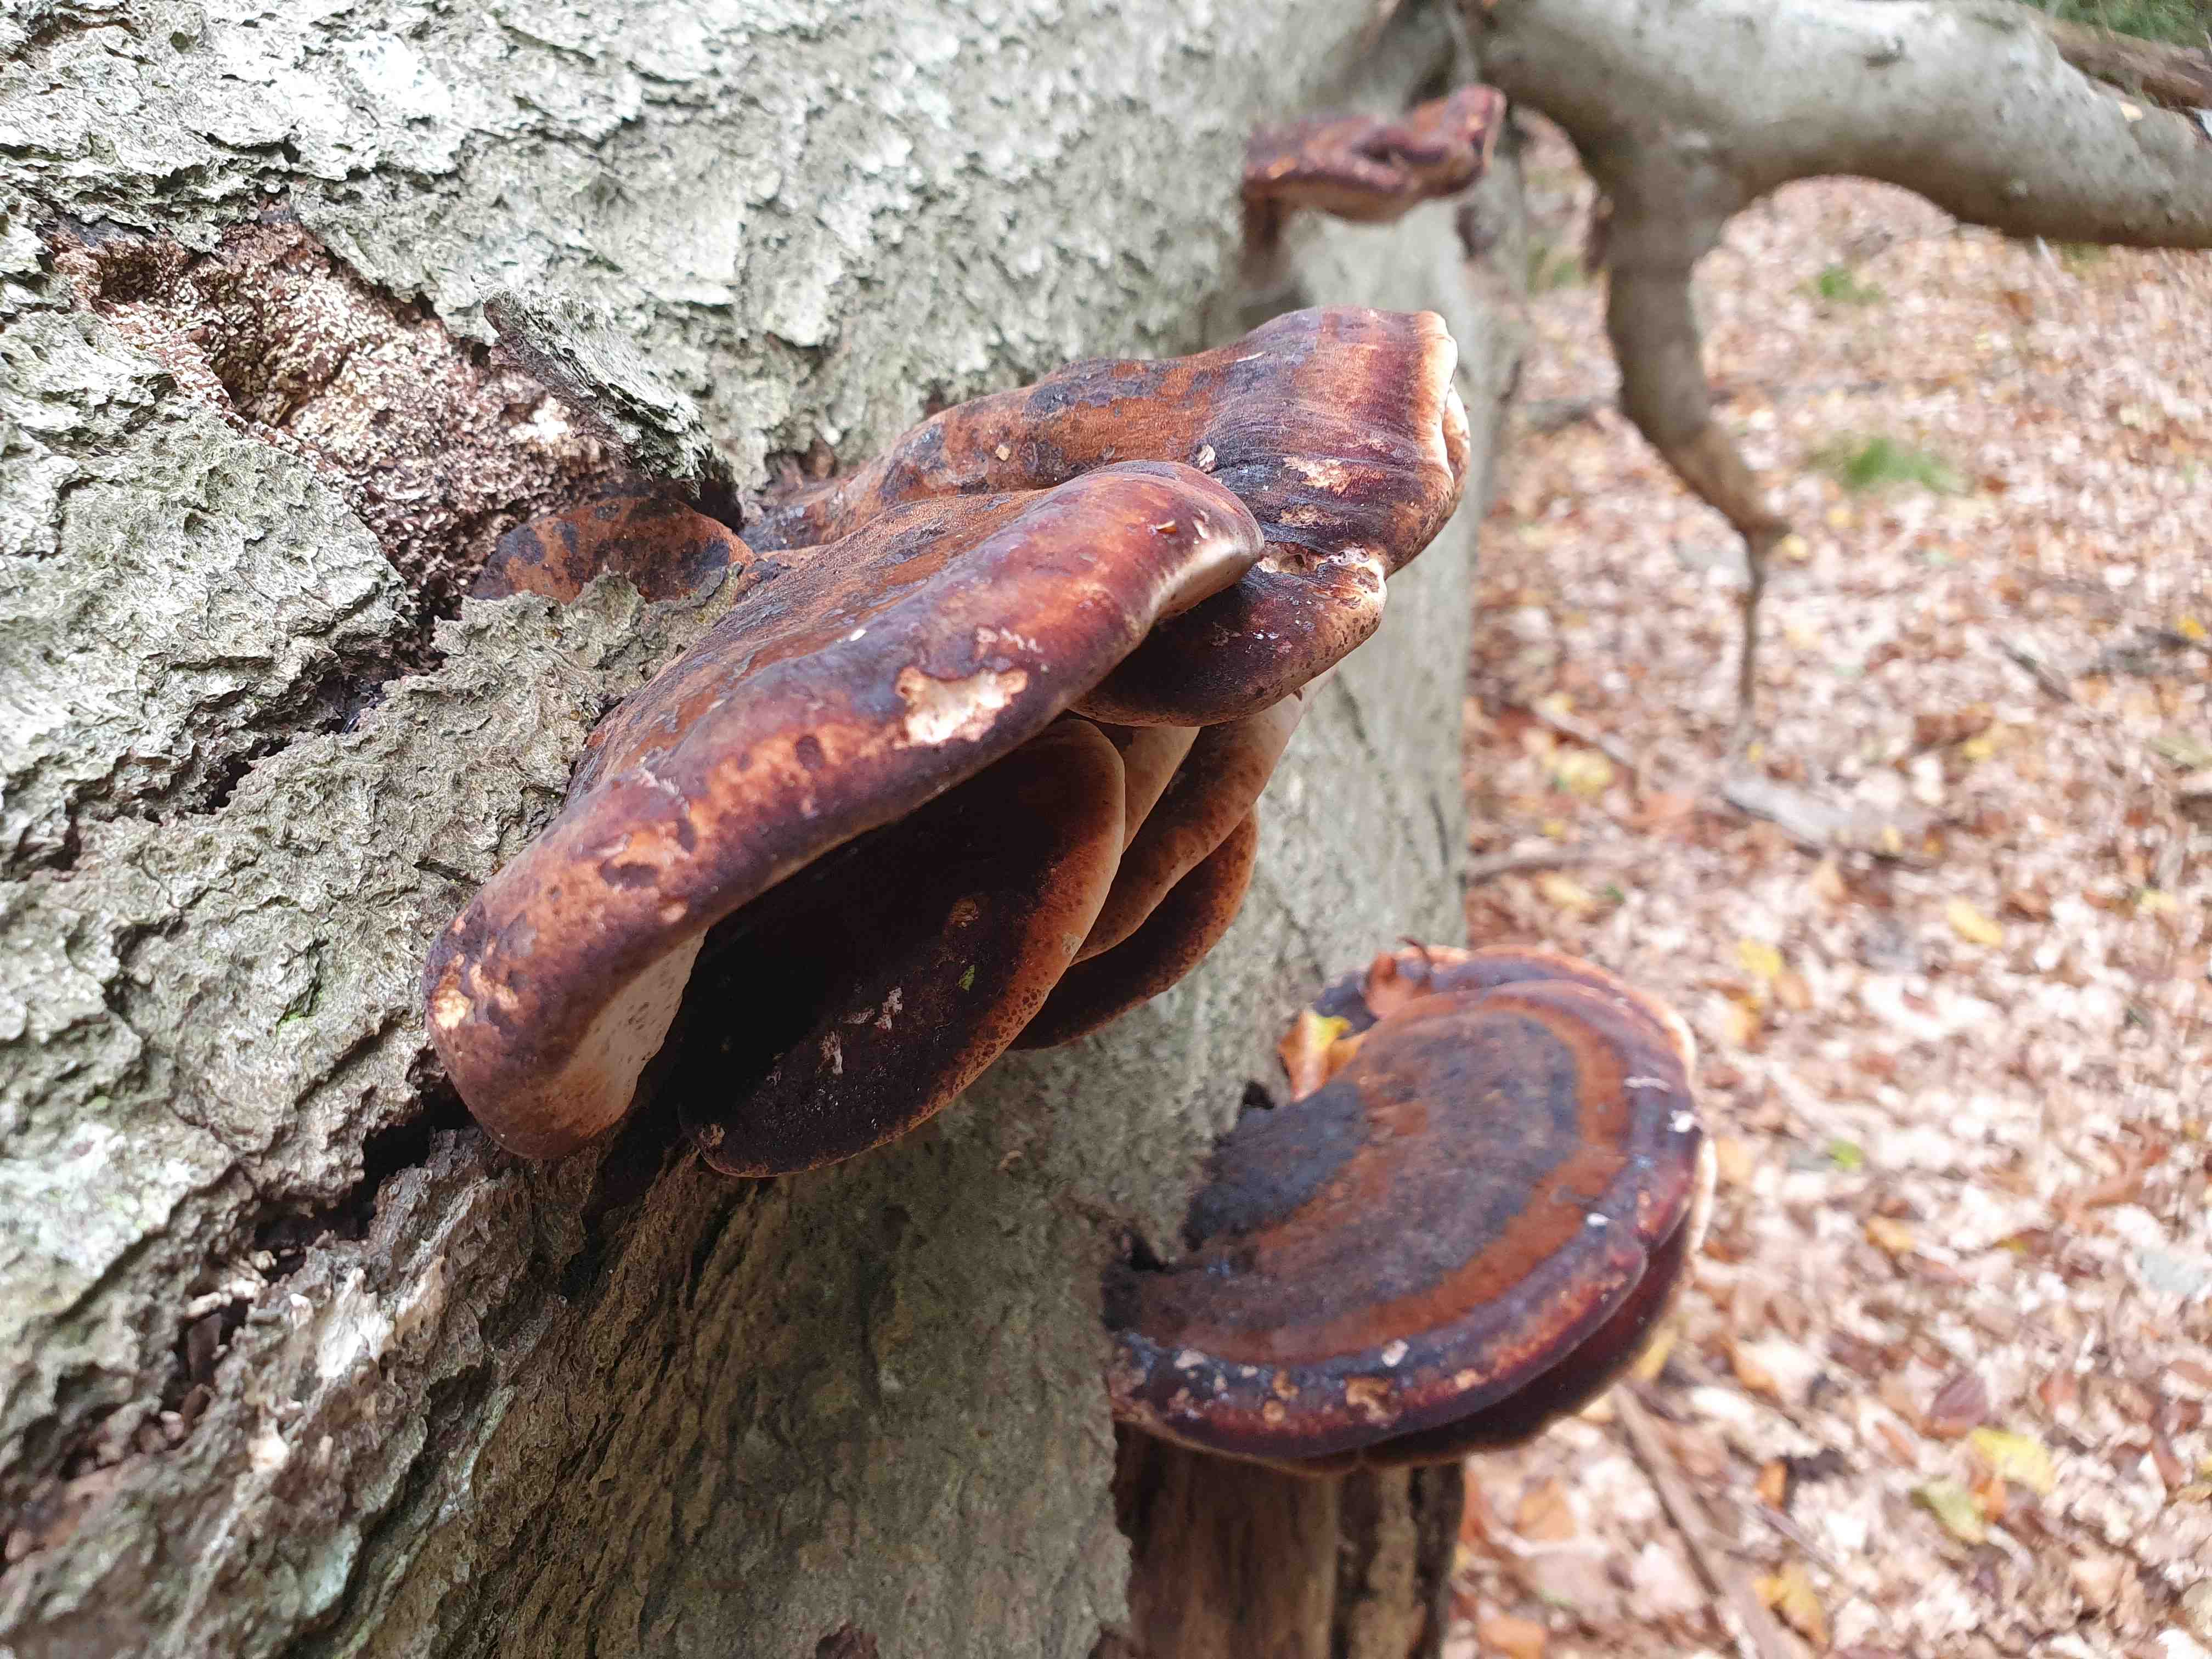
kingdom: Fungi
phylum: Basidiomycota
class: Agaricomycetes
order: Polyporales
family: Ischnodermataceae
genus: Ischnoderma
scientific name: Ischnoderma resinosum
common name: løv-tjæreporesvamp
